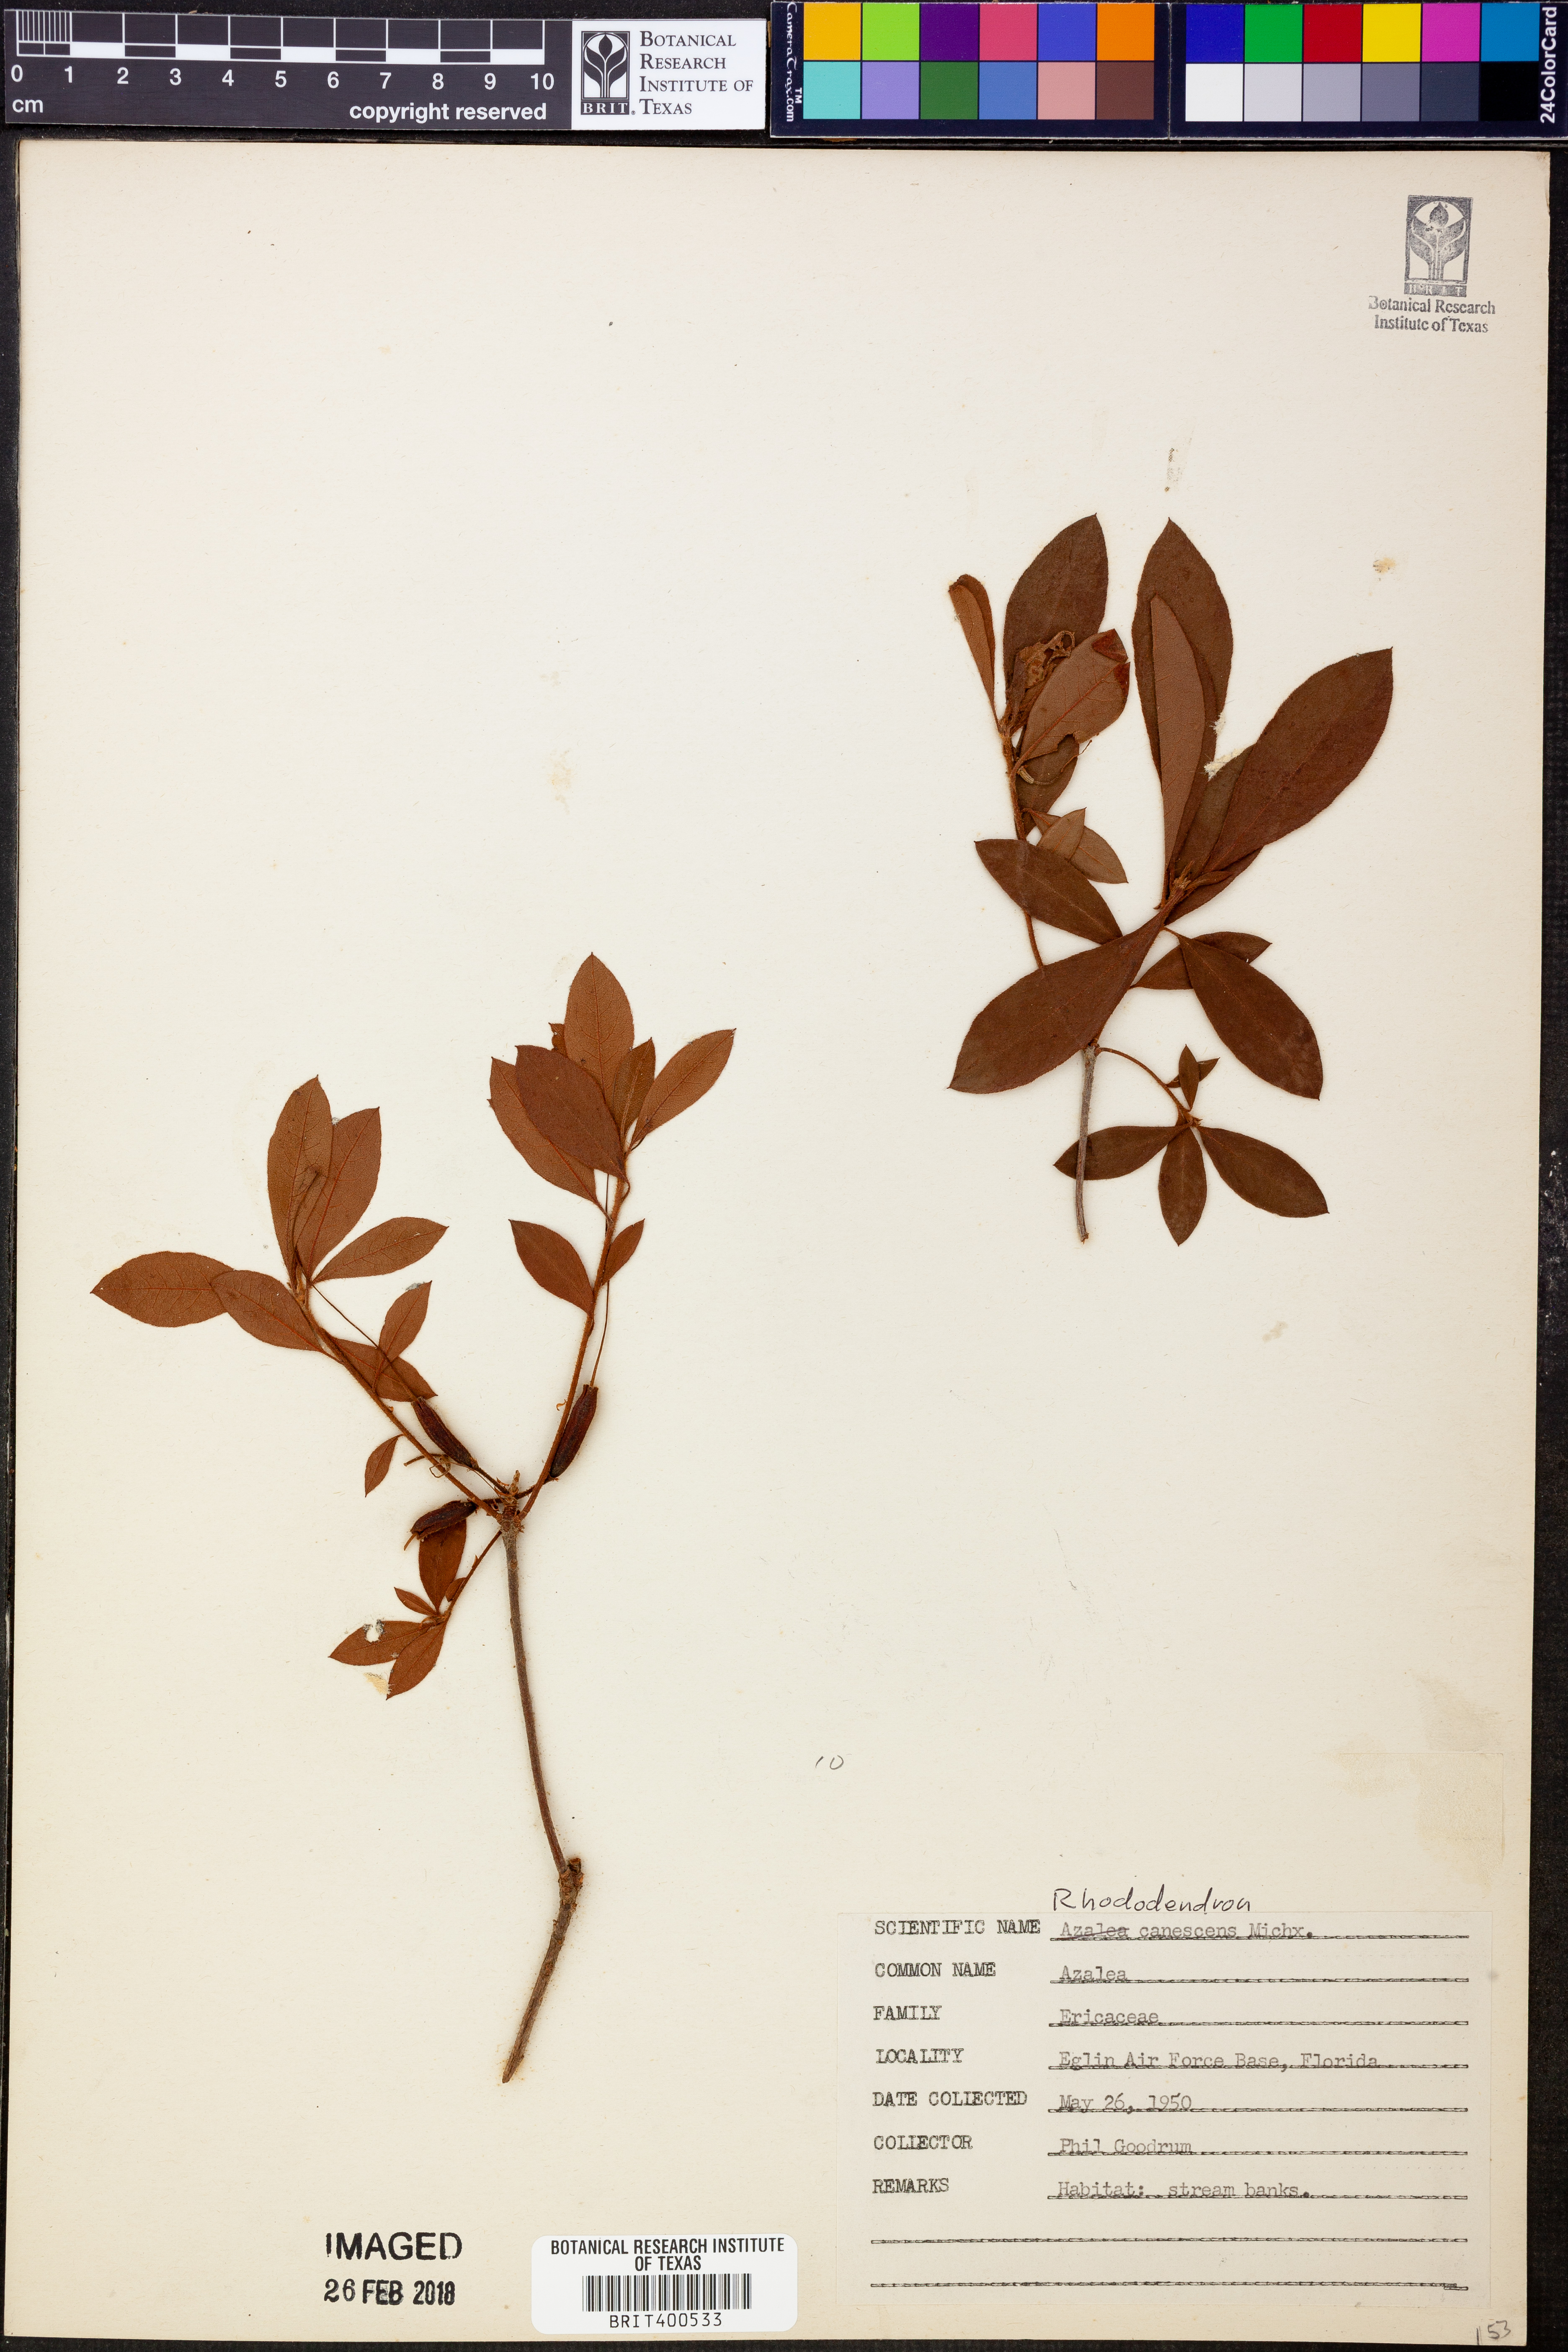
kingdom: Plantae
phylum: Tracheophyta
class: Magnoliopsida
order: Ericales
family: Ericaceae
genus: Rhododendron
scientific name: Rhododendron canescens
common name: Mountain azalea
